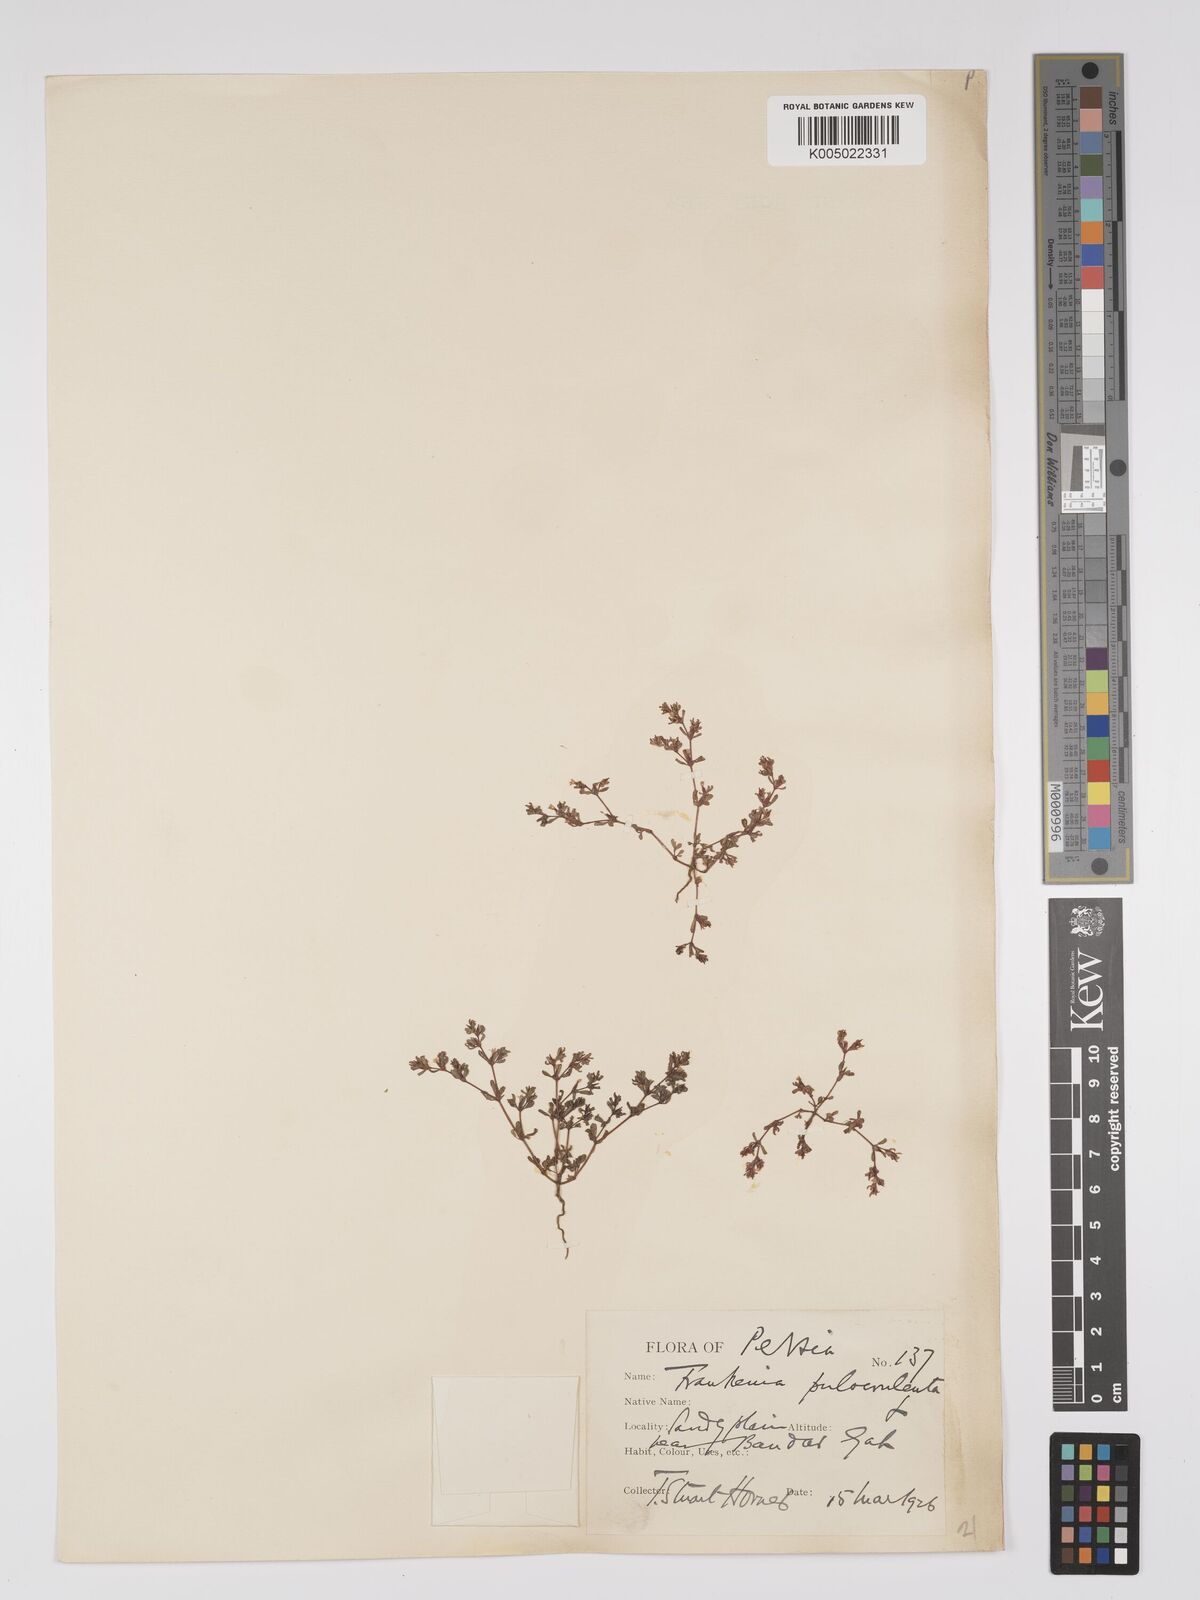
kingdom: Plantae
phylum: Tracheophyta
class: Magnoliopsida
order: Caryophyllales
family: Frankeniaceae
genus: Frankenia
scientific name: Frankenia pulverulenta
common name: European seaheath
